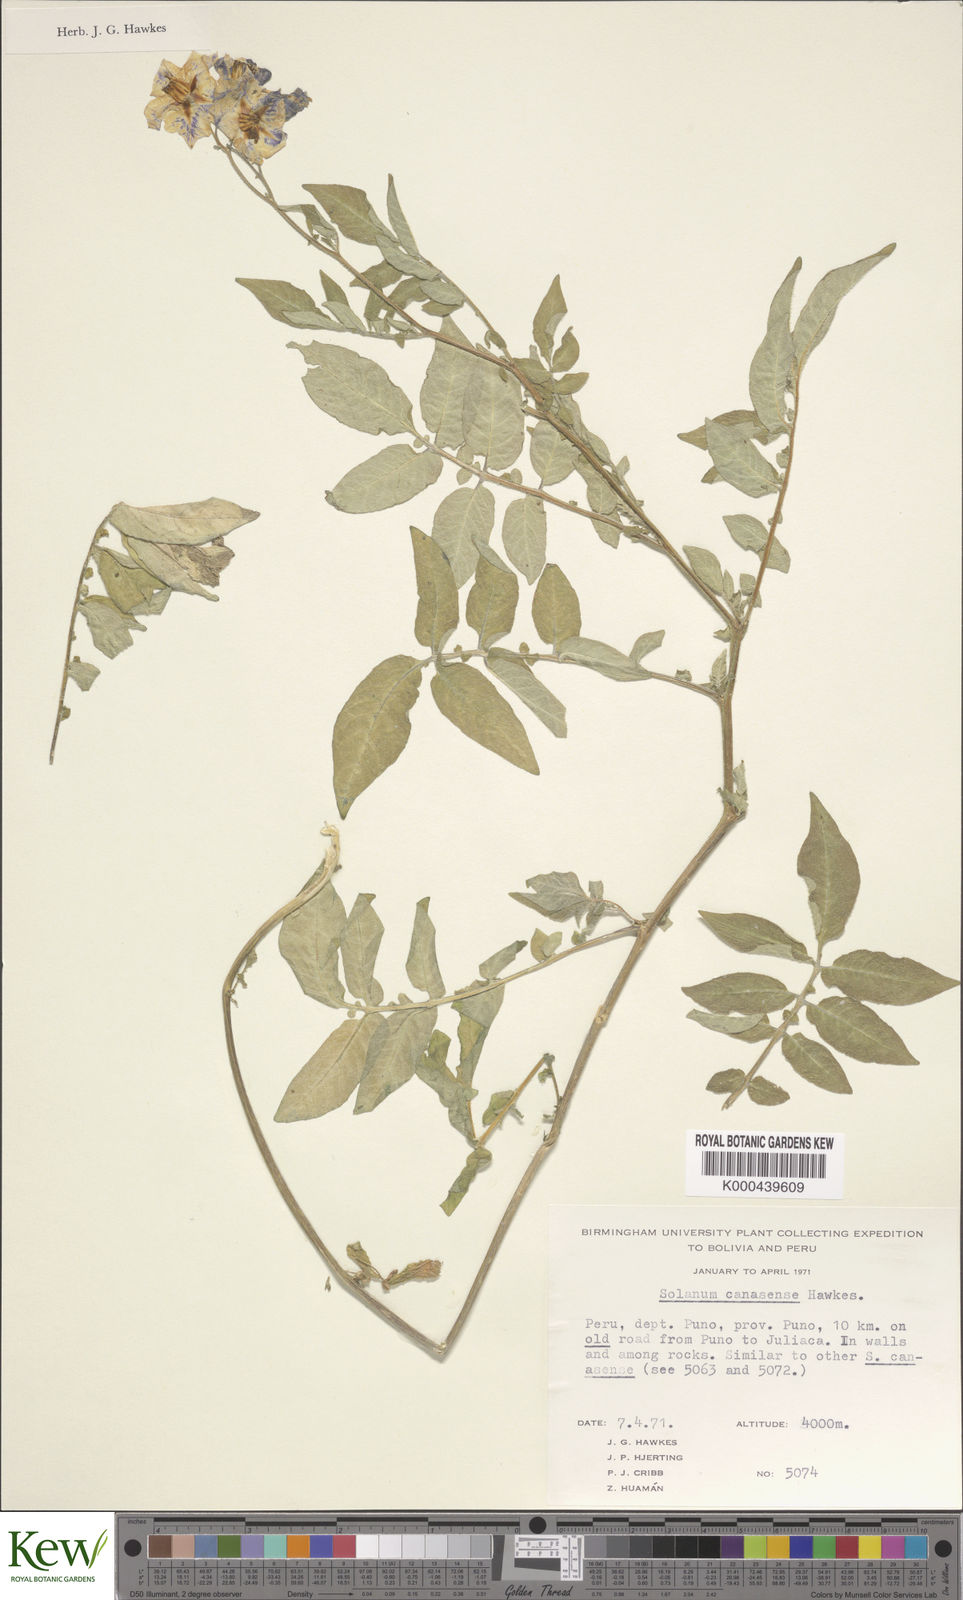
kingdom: Plantae
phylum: Tracheophyta
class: Magnoliopsida
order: Solanales
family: Solanaceae
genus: Solanum
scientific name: Solanum candolleanum
